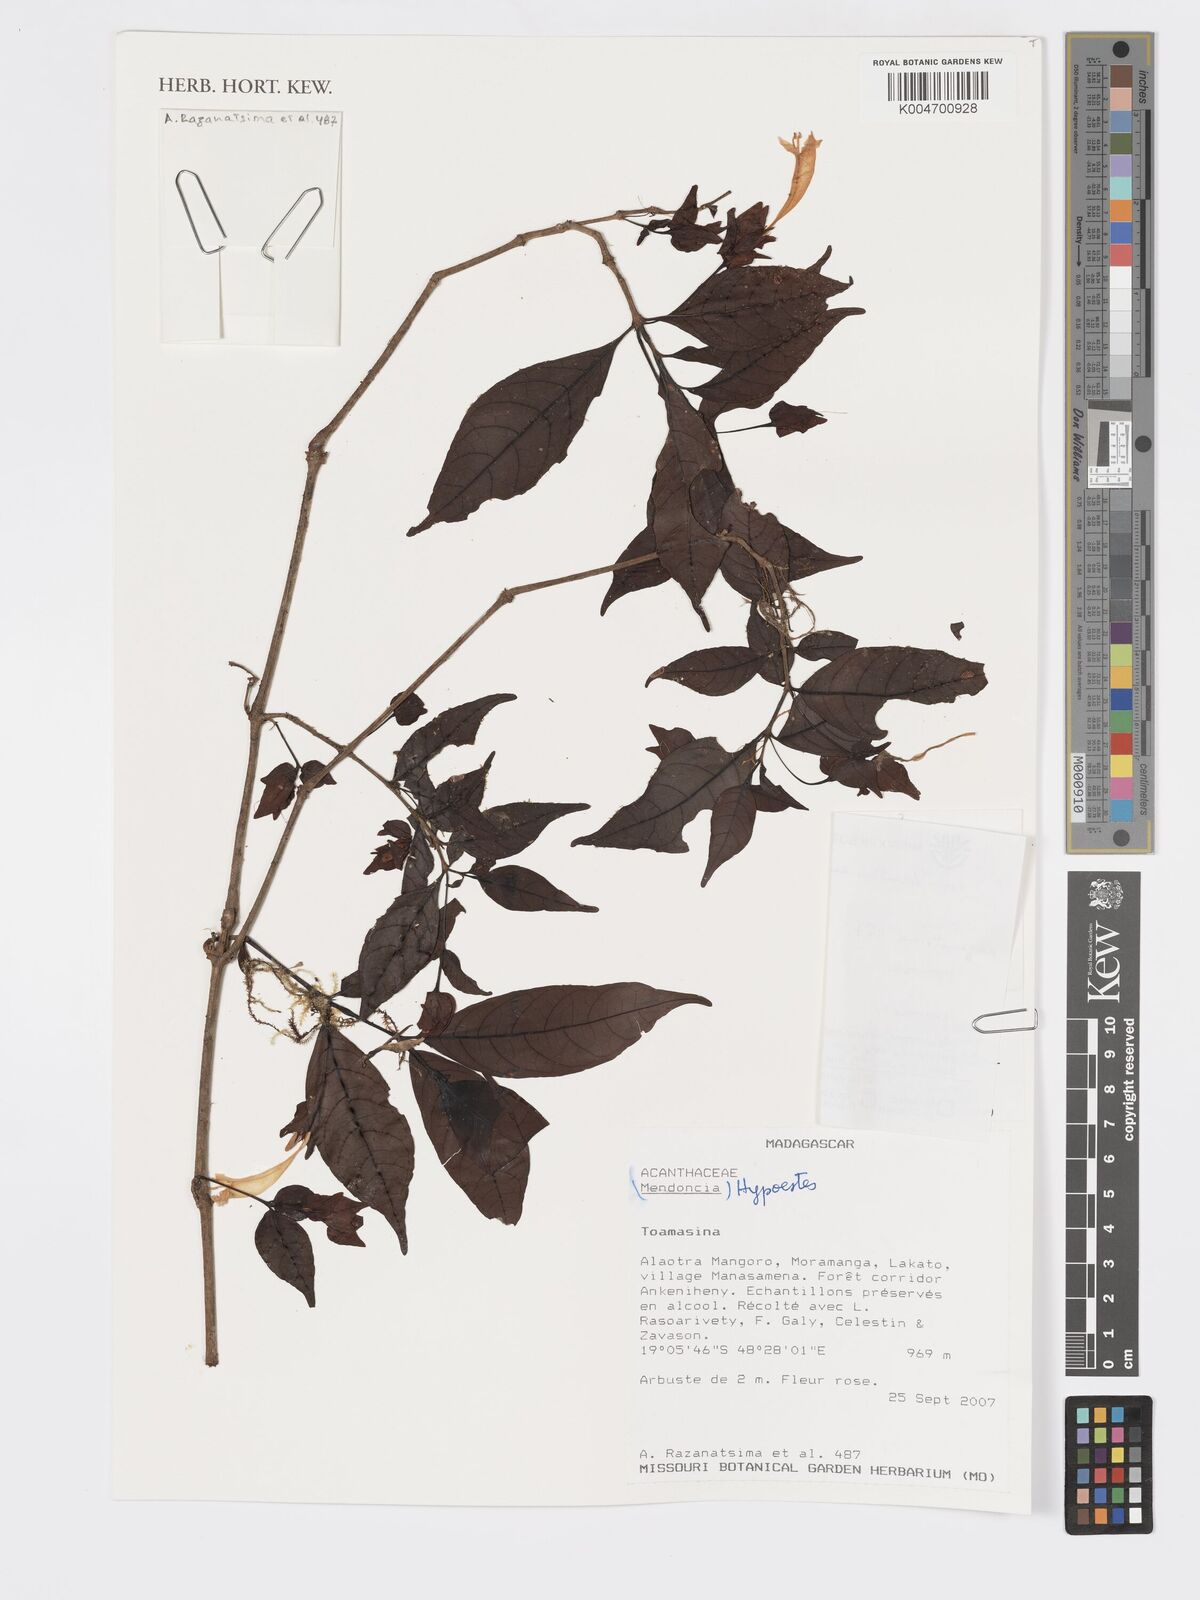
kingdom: Plantae
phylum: Tracheophyta
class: Magnoliopsida
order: Lamiales
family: Acanthaceae
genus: Hypoestes
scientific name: Hypoestes
